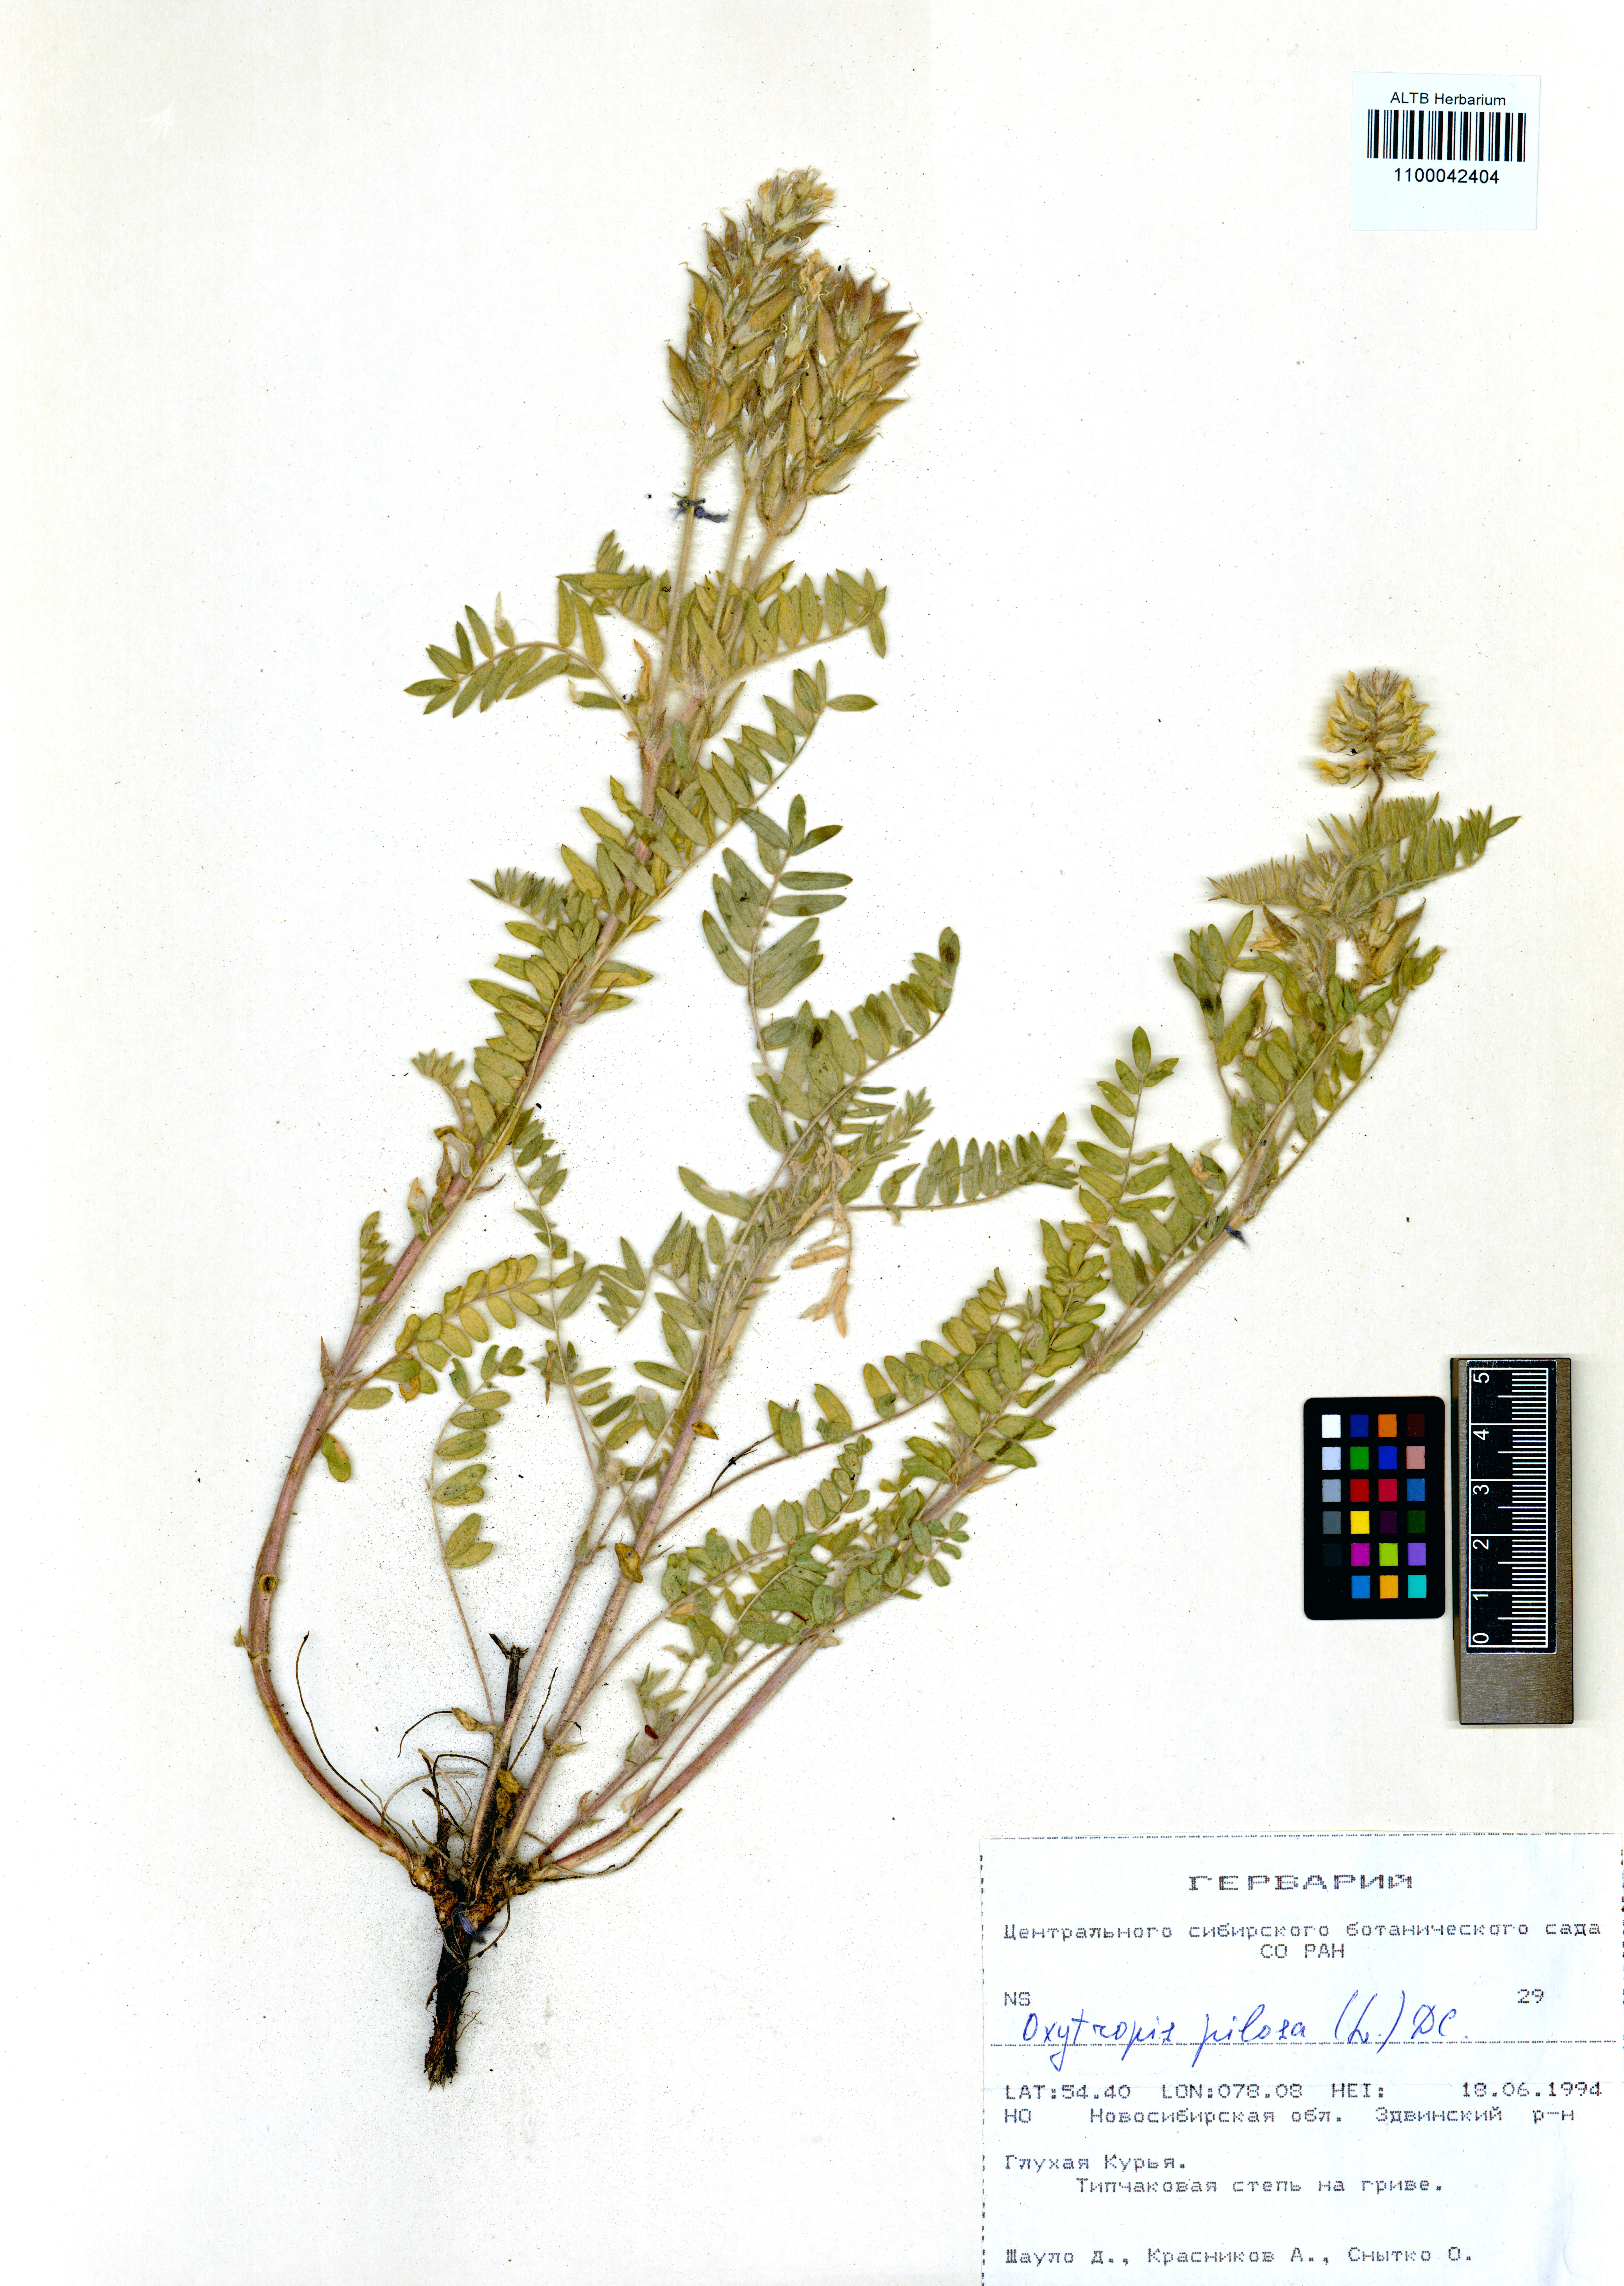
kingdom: Plantae
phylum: Tracheophyta
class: Magnoliopsida
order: Fabales
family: Fabaceae
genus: Oxytropis
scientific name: Oxytropis pilosa
